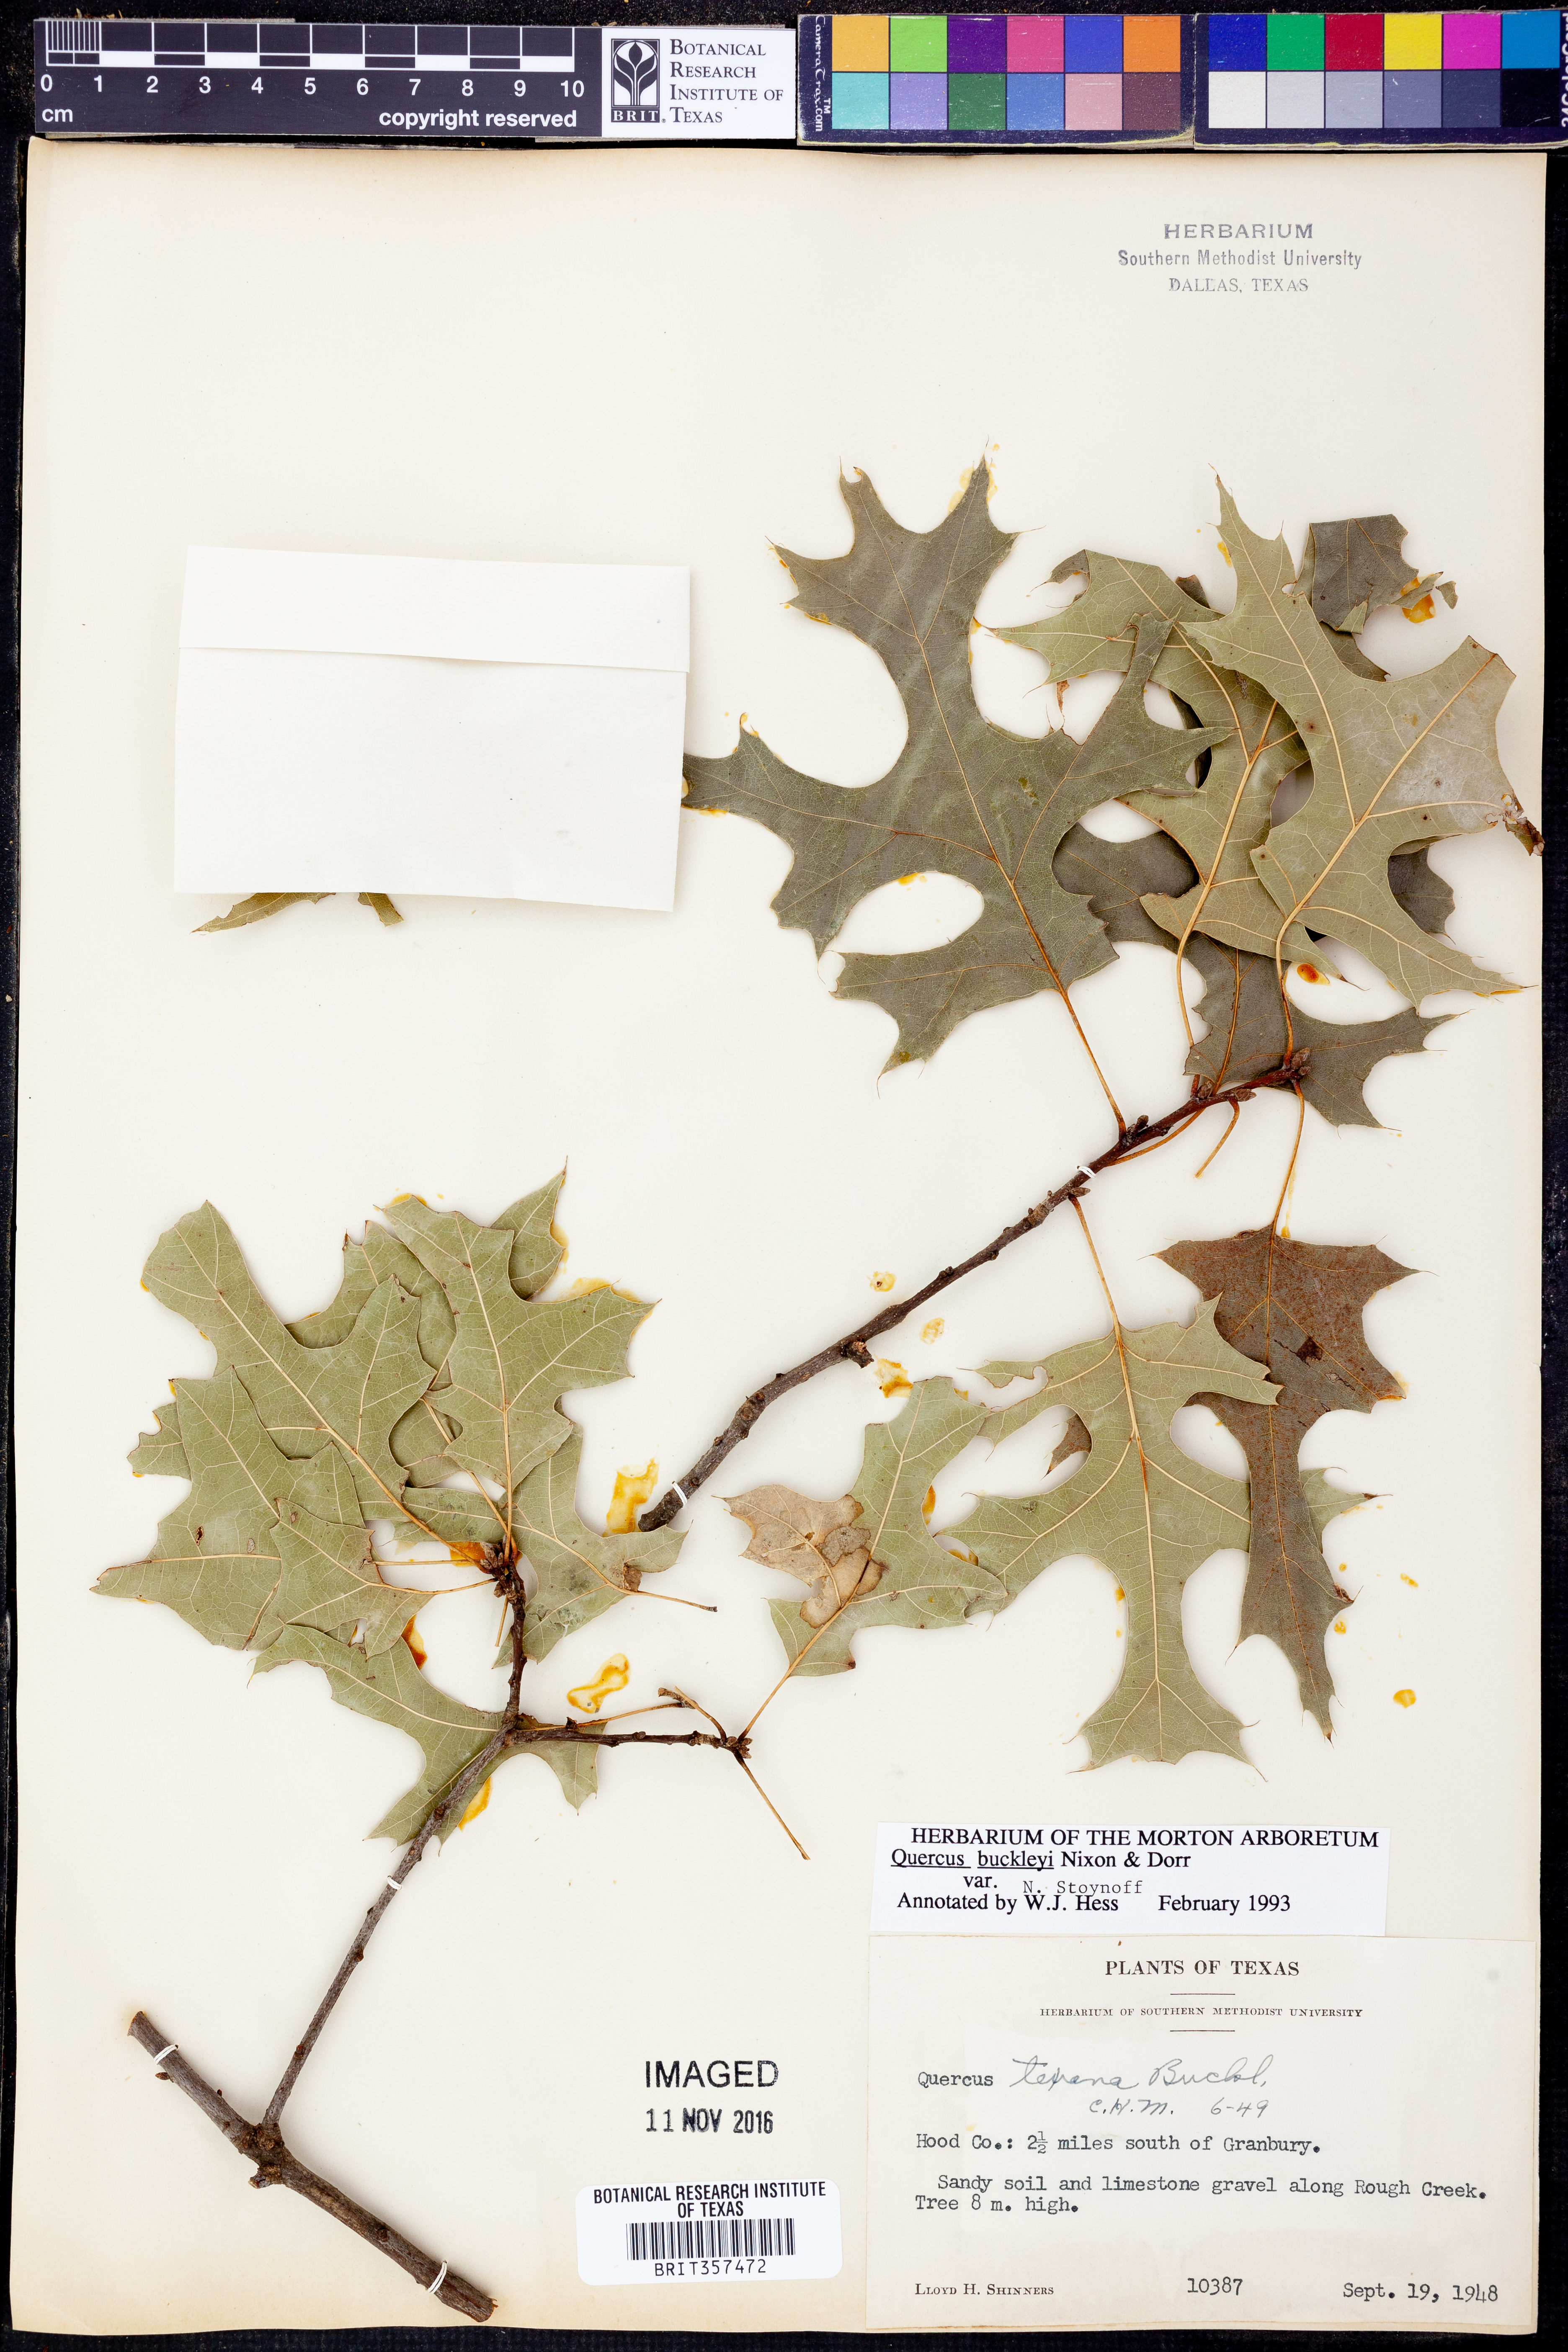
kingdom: Plantae
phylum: Tracheophyta
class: Magnoliopsida
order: Fagales
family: Fagaceae
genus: Quercus
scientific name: Quercus buckleyi
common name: Buckley oak
